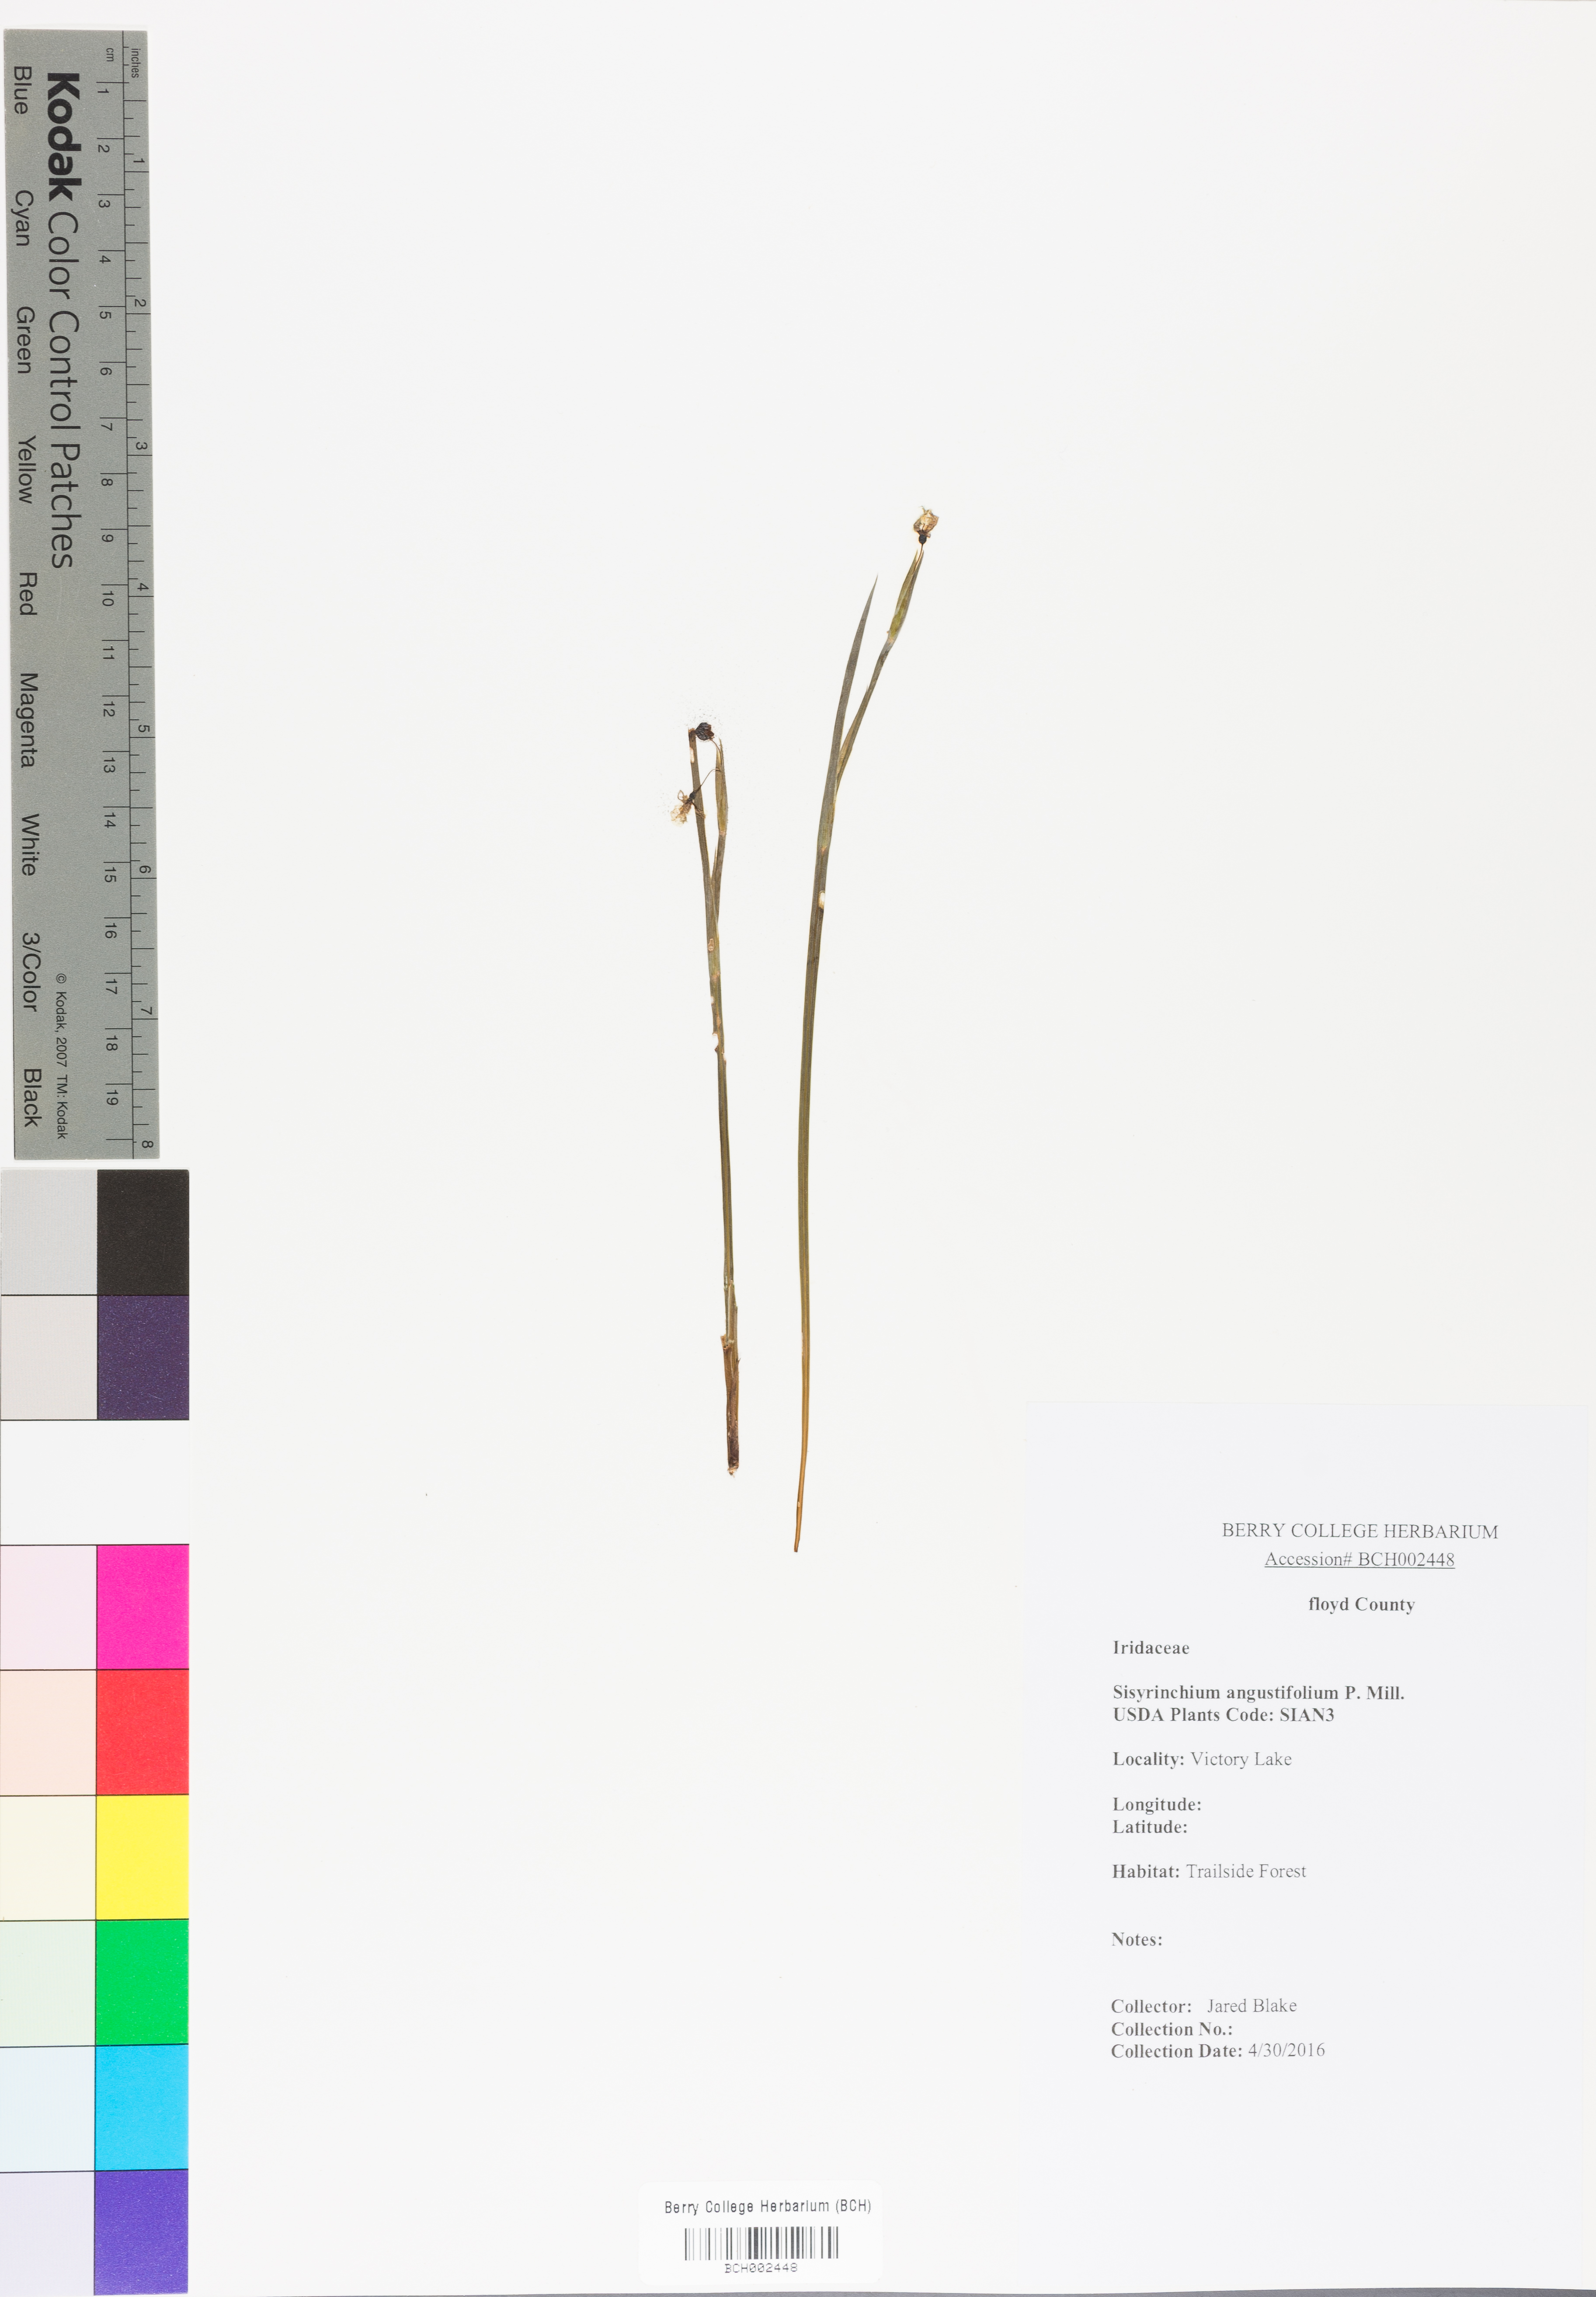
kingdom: Plantae
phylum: Tracheophyta
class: Liliopsida
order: Asparagales
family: Iridaceae
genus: Sisyrinchium
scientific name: Sisyrinchium angustifolium
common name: Narrow-leaf blue-eyed-grass
